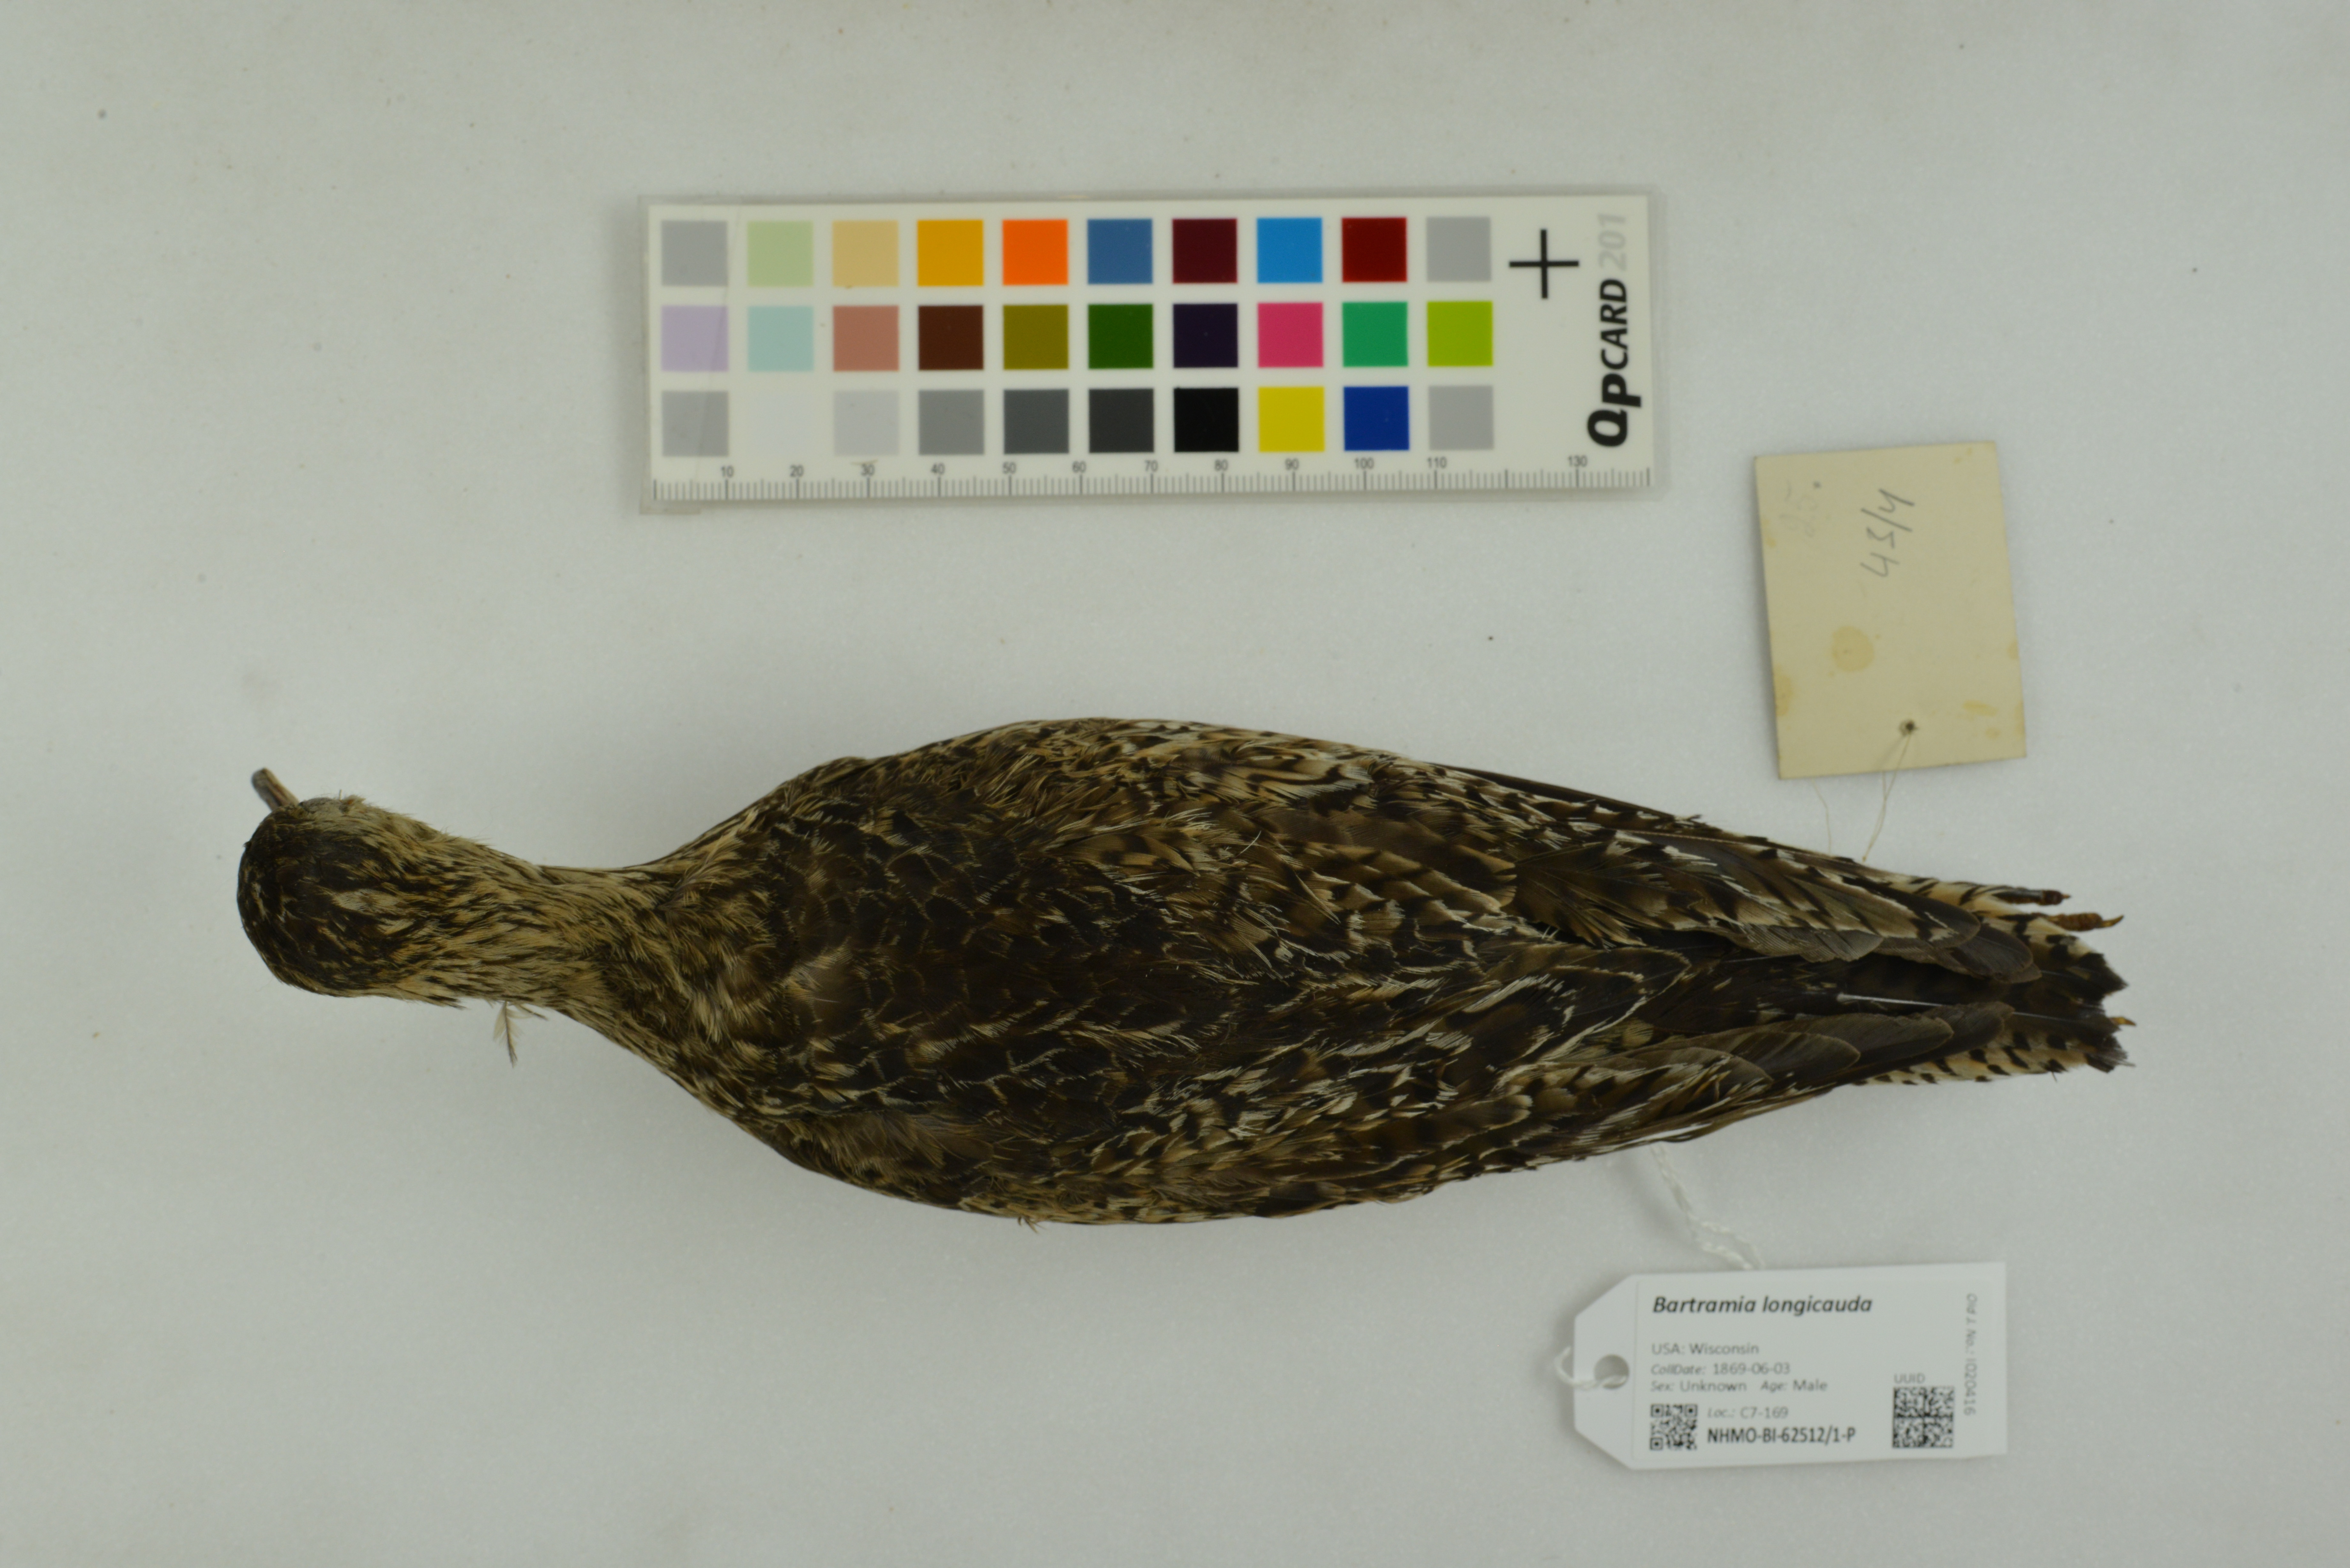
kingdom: Animalia
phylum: Chordata
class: Aves
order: Charadriiformes
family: Scolopacidae
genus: Bartramia
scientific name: Bartramia longicauda
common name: Upland sandpiper
